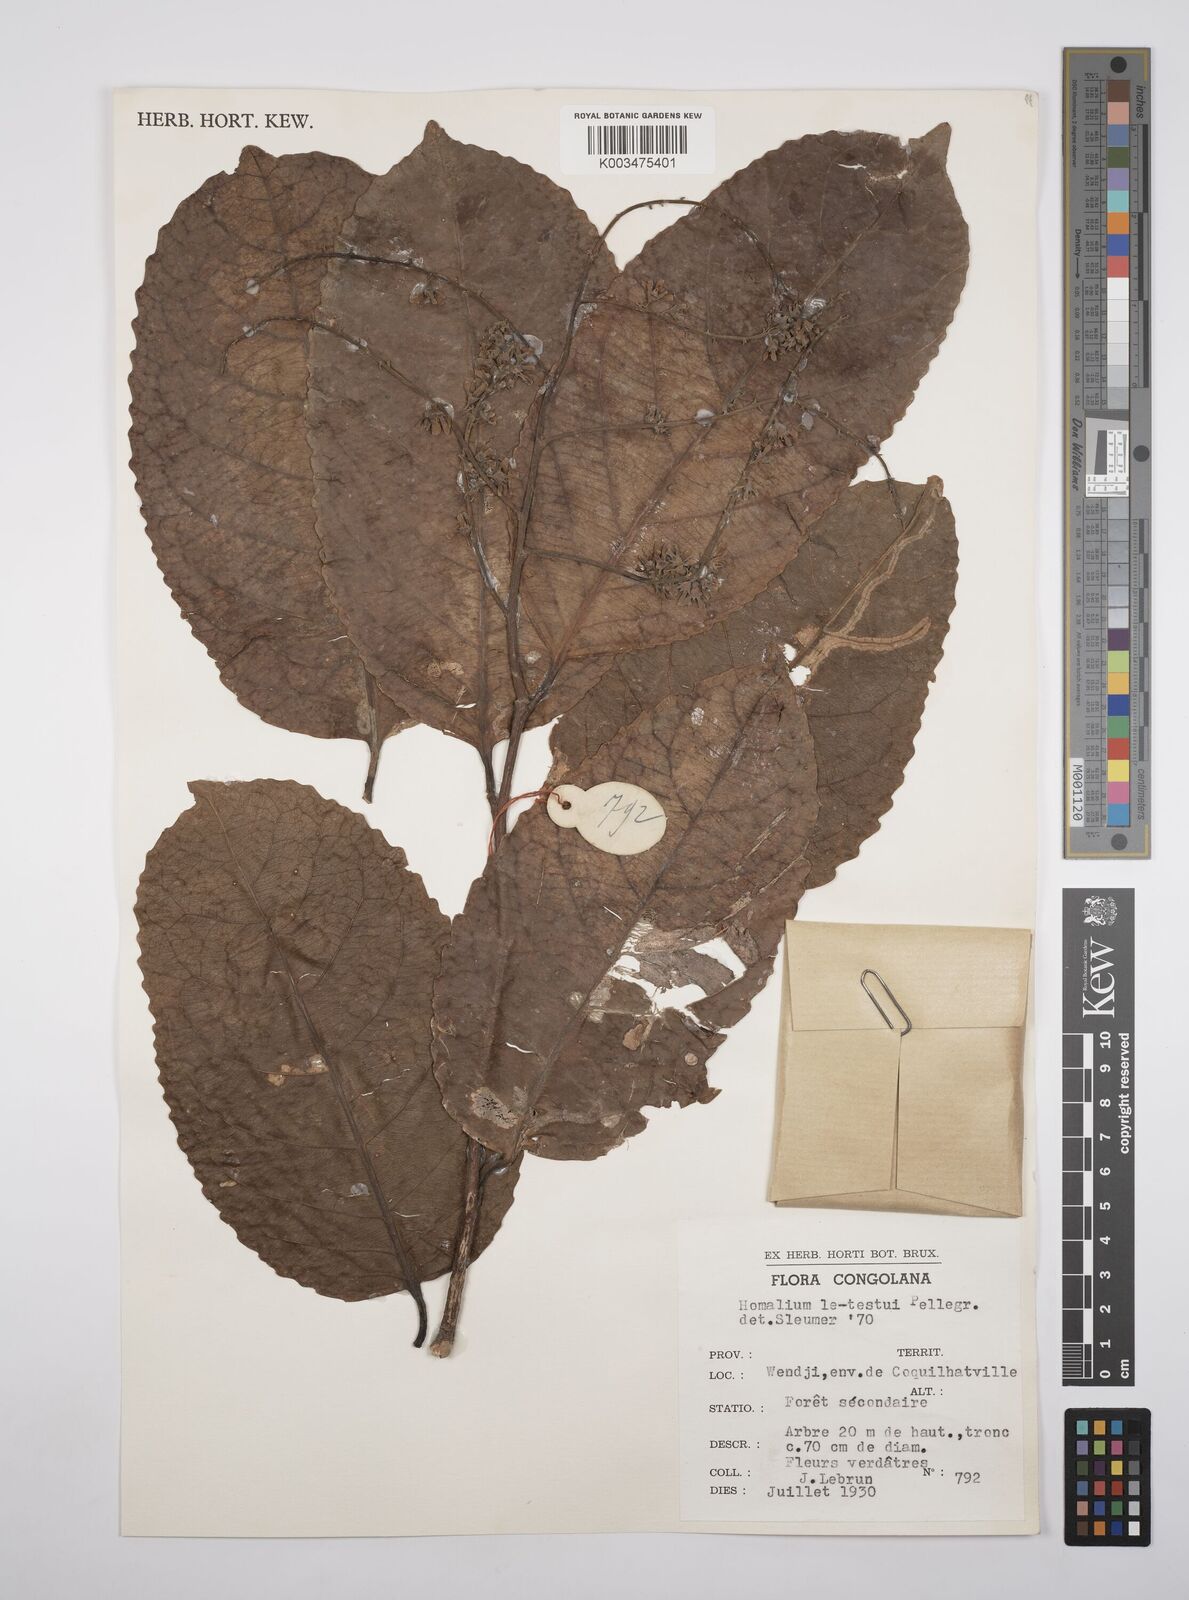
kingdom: Plantae
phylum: Tracheophyta
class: Magnoliopsida
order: Malpighiales
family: Salicaceae
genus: Homalium
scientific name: Homalium letestui
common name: African homalium
